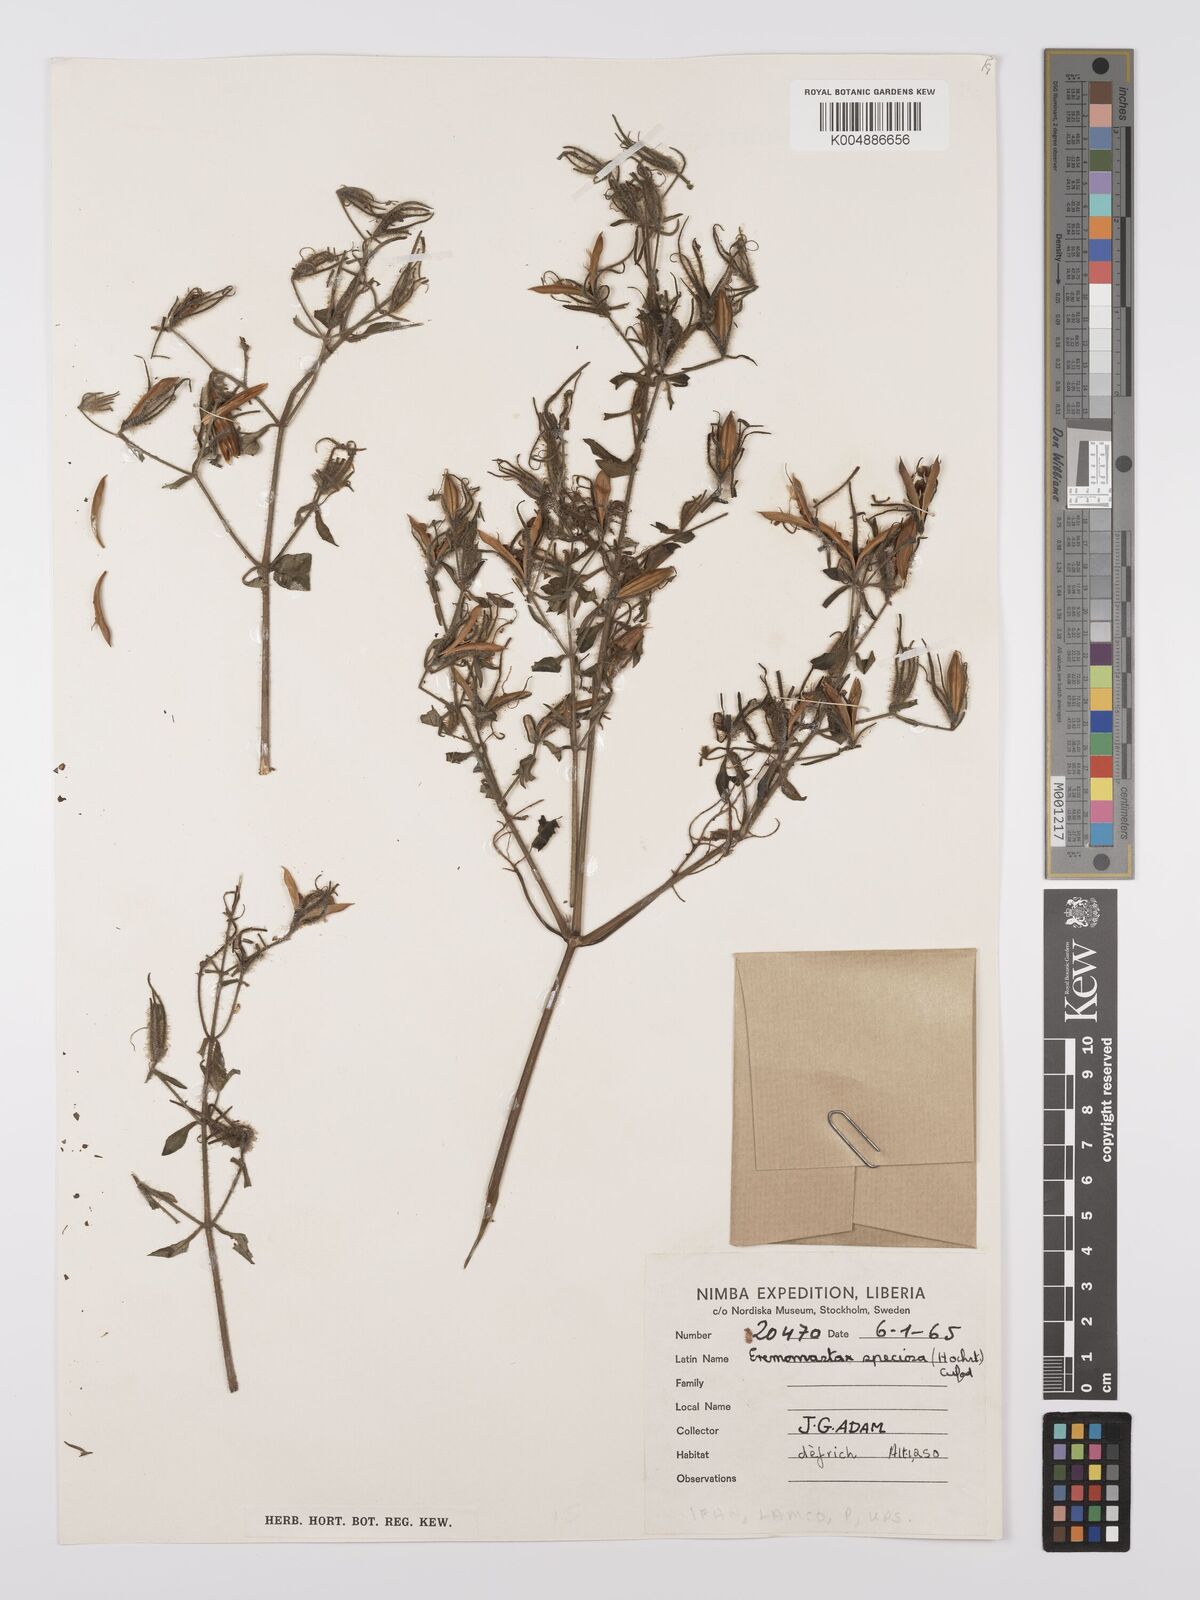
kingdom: Plantae
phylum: Tracheophyta
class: Magnoliopsida
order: Lamiales
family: Acanthaceae
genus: Eremomastax
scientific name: Eremomastax speciosa
